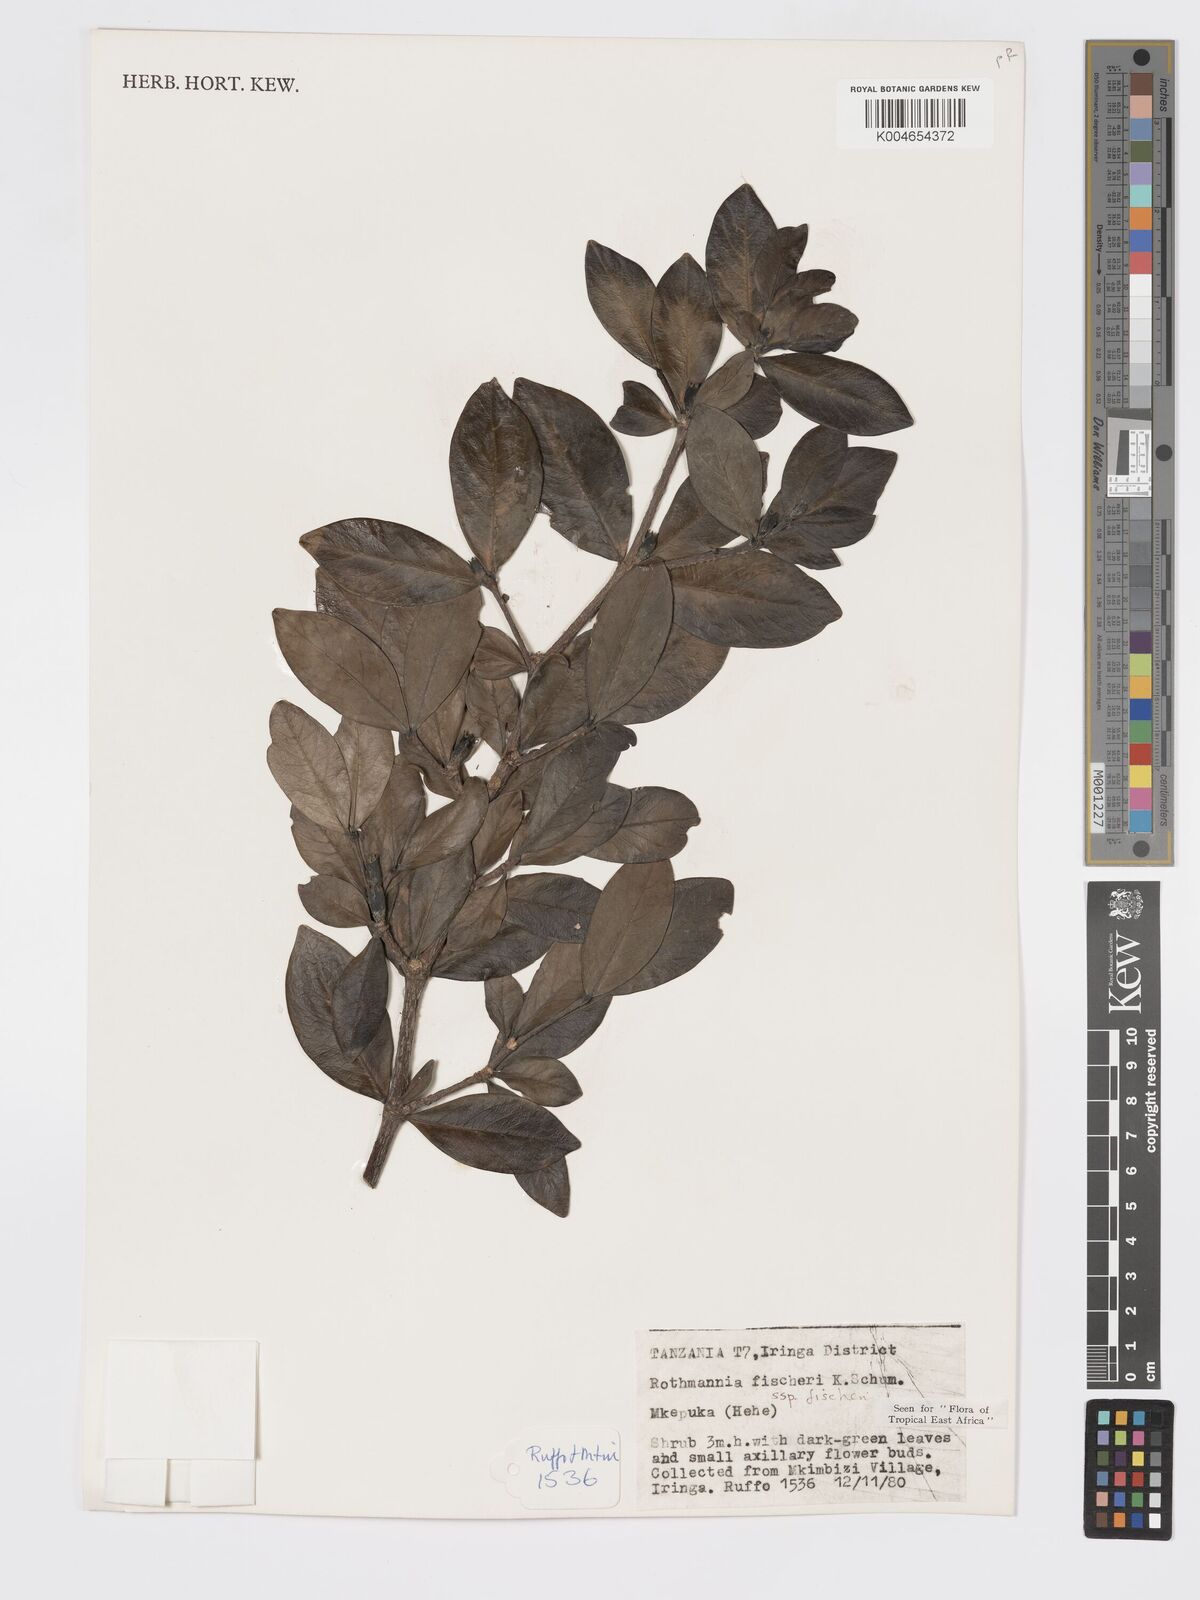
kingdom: Plantae
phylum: Tracheophyta
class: Magnoliopsida
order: Gentianales
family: Rubiaceae
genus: Rothmannia
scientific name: Rothmannia fischeri
